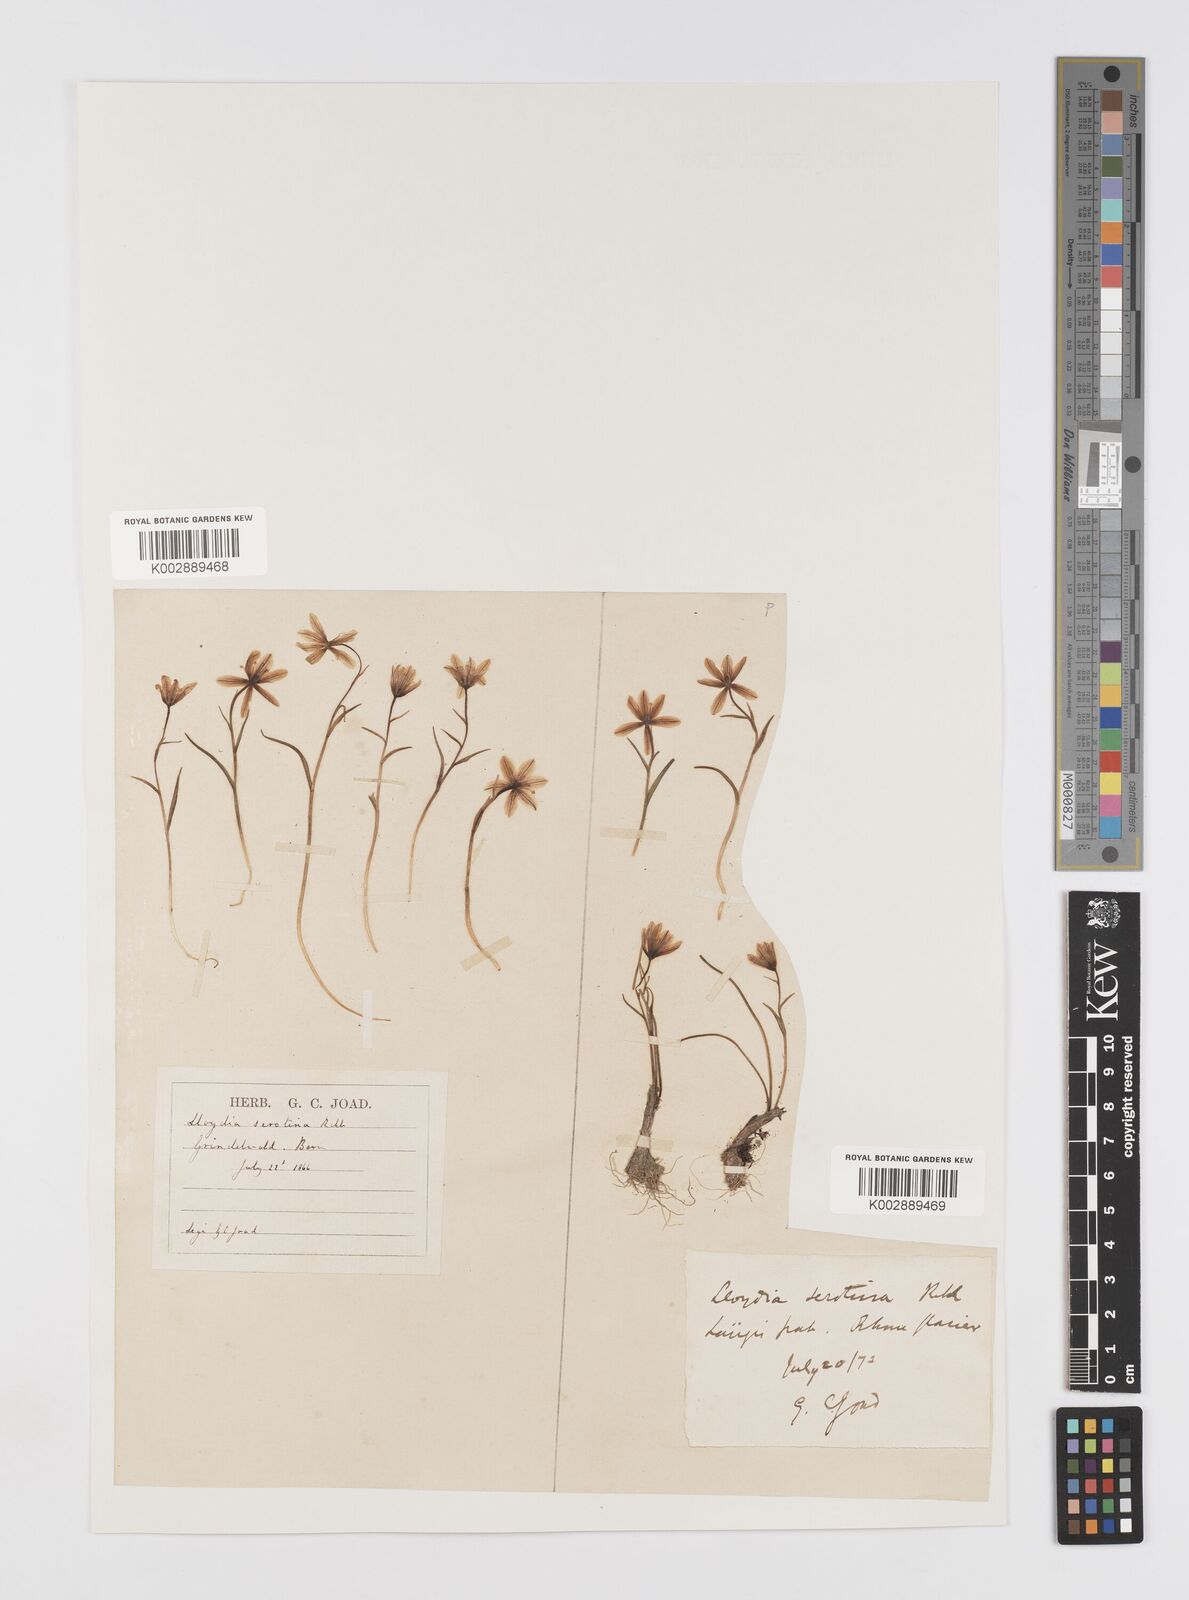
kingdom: Plantae
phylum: Tracheophyta
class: Liliopsida
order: Liliales
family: Liliaceae
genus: Gagea
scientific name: Gagea
